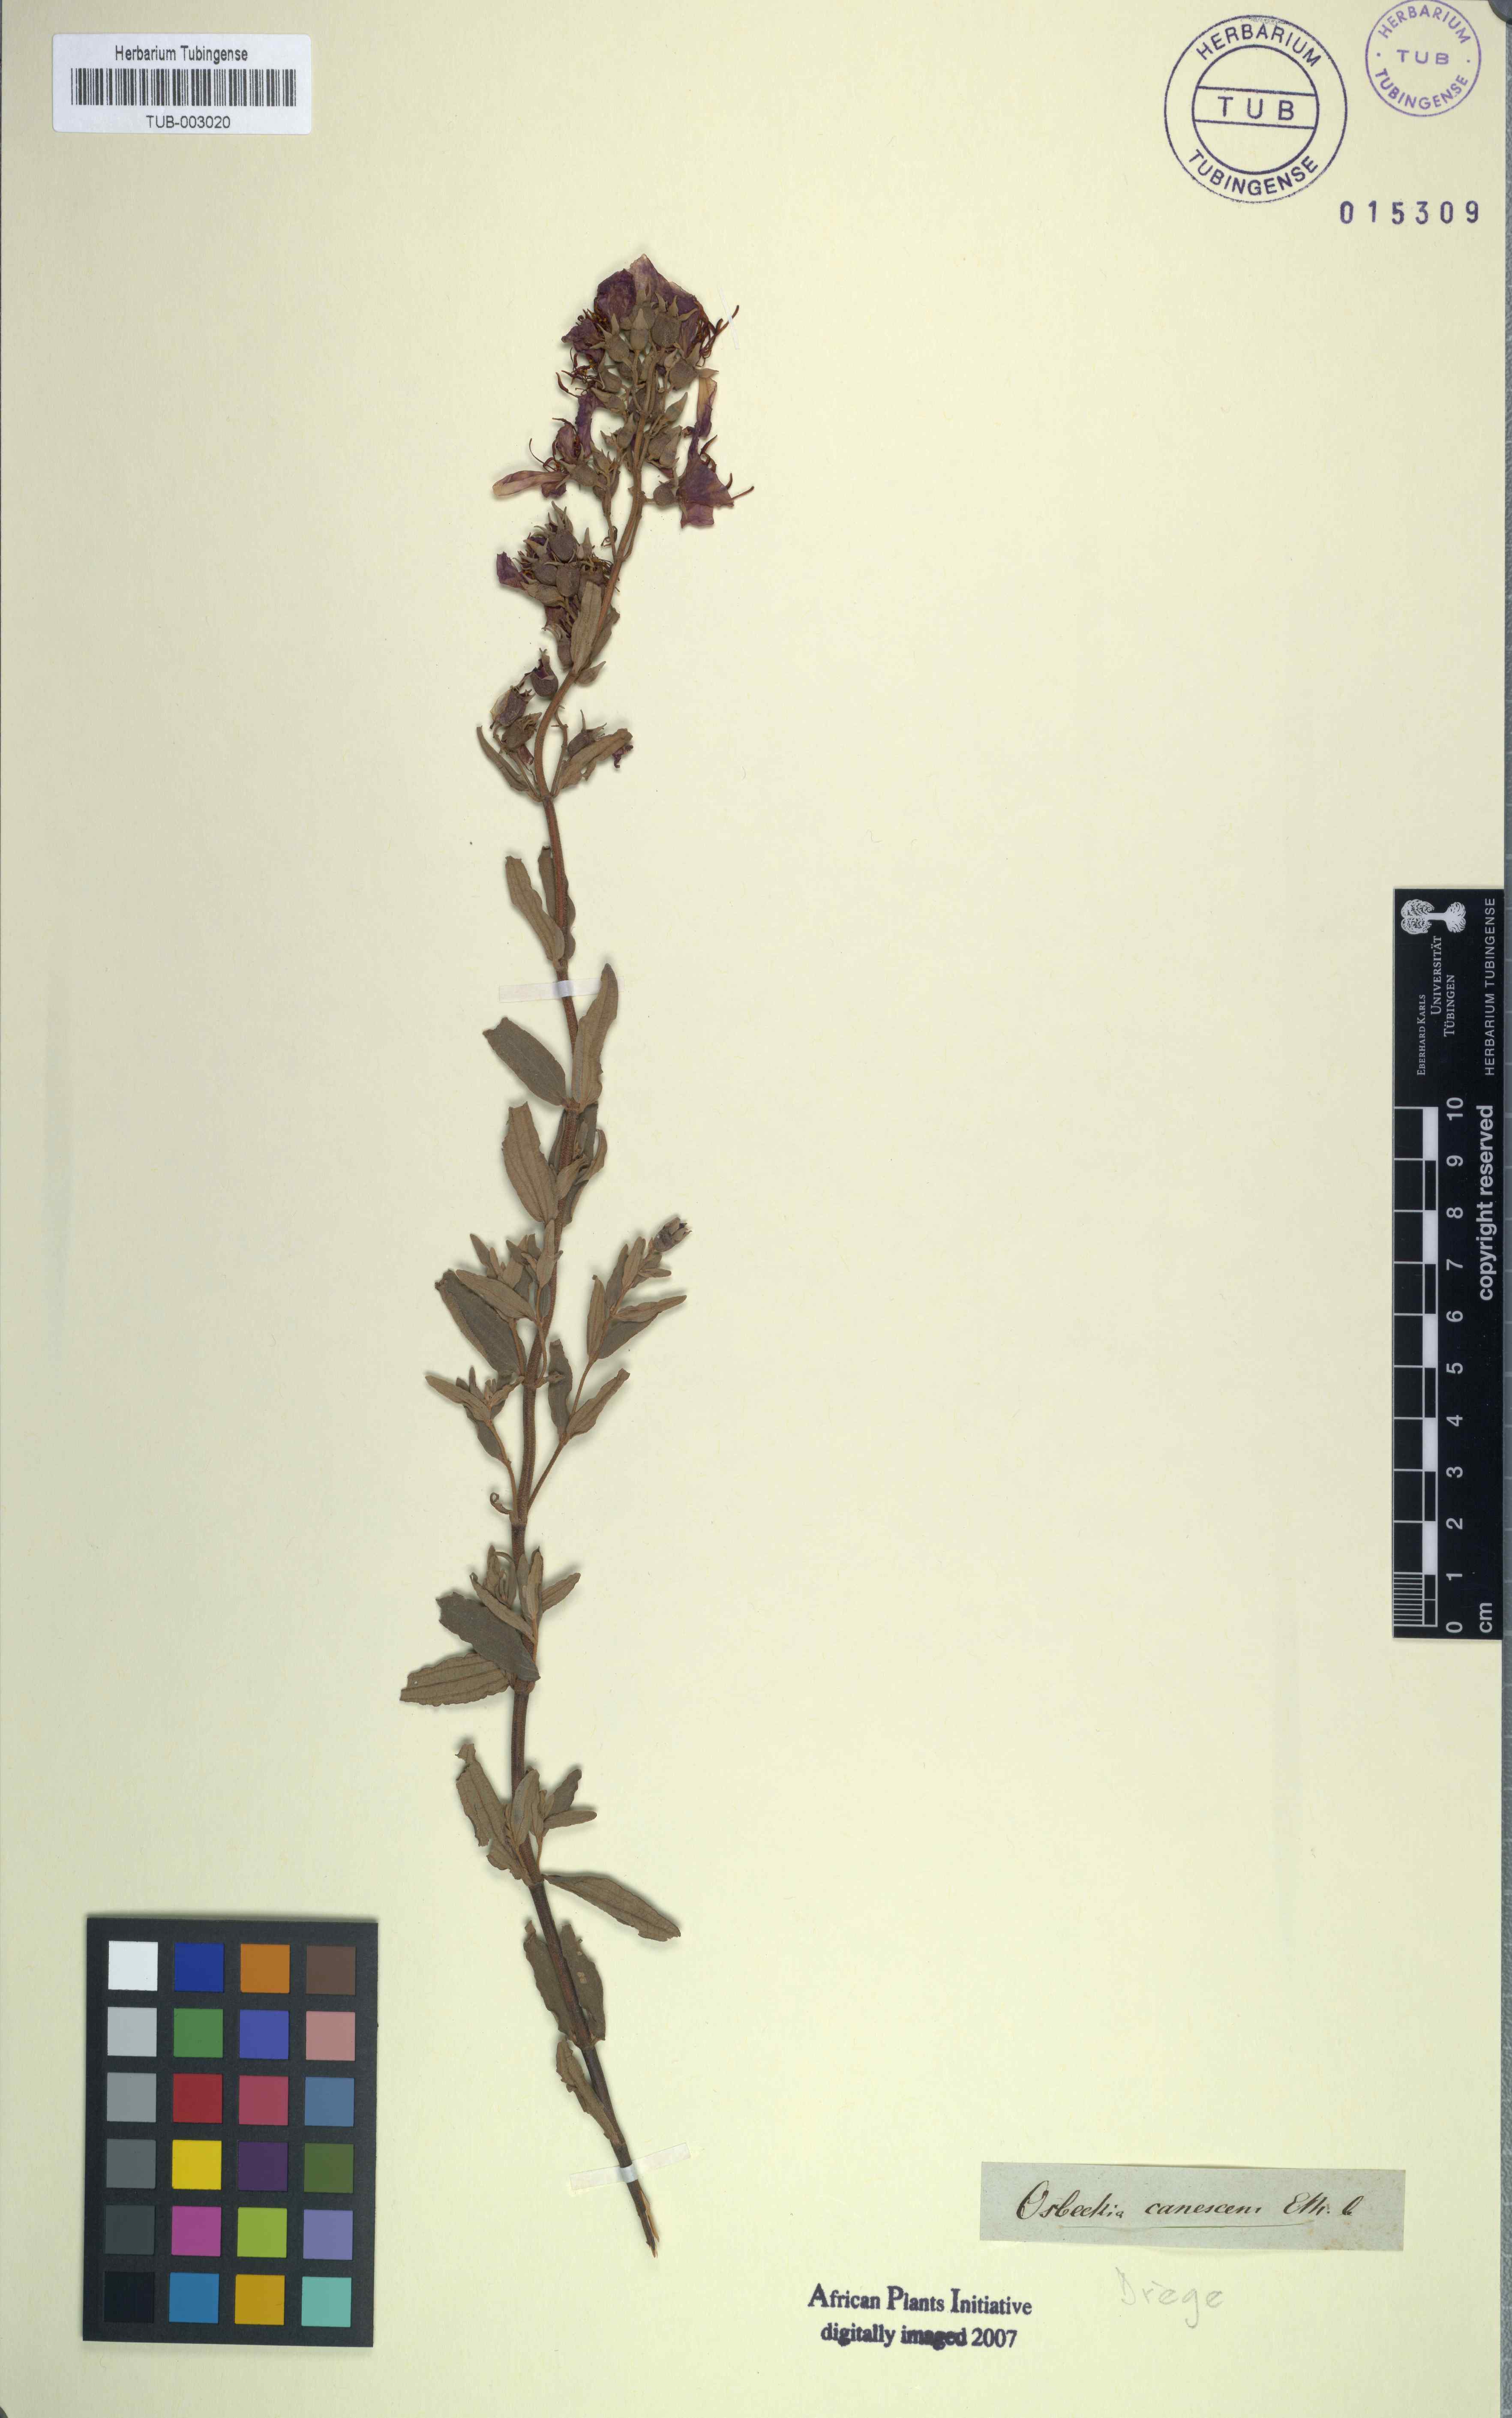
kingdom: Plantae
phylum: Tracheophyta
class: Magnoliopsida
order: Myrtales
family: Melastomataceae
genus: Argyrella
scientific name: Argyrella canescens
